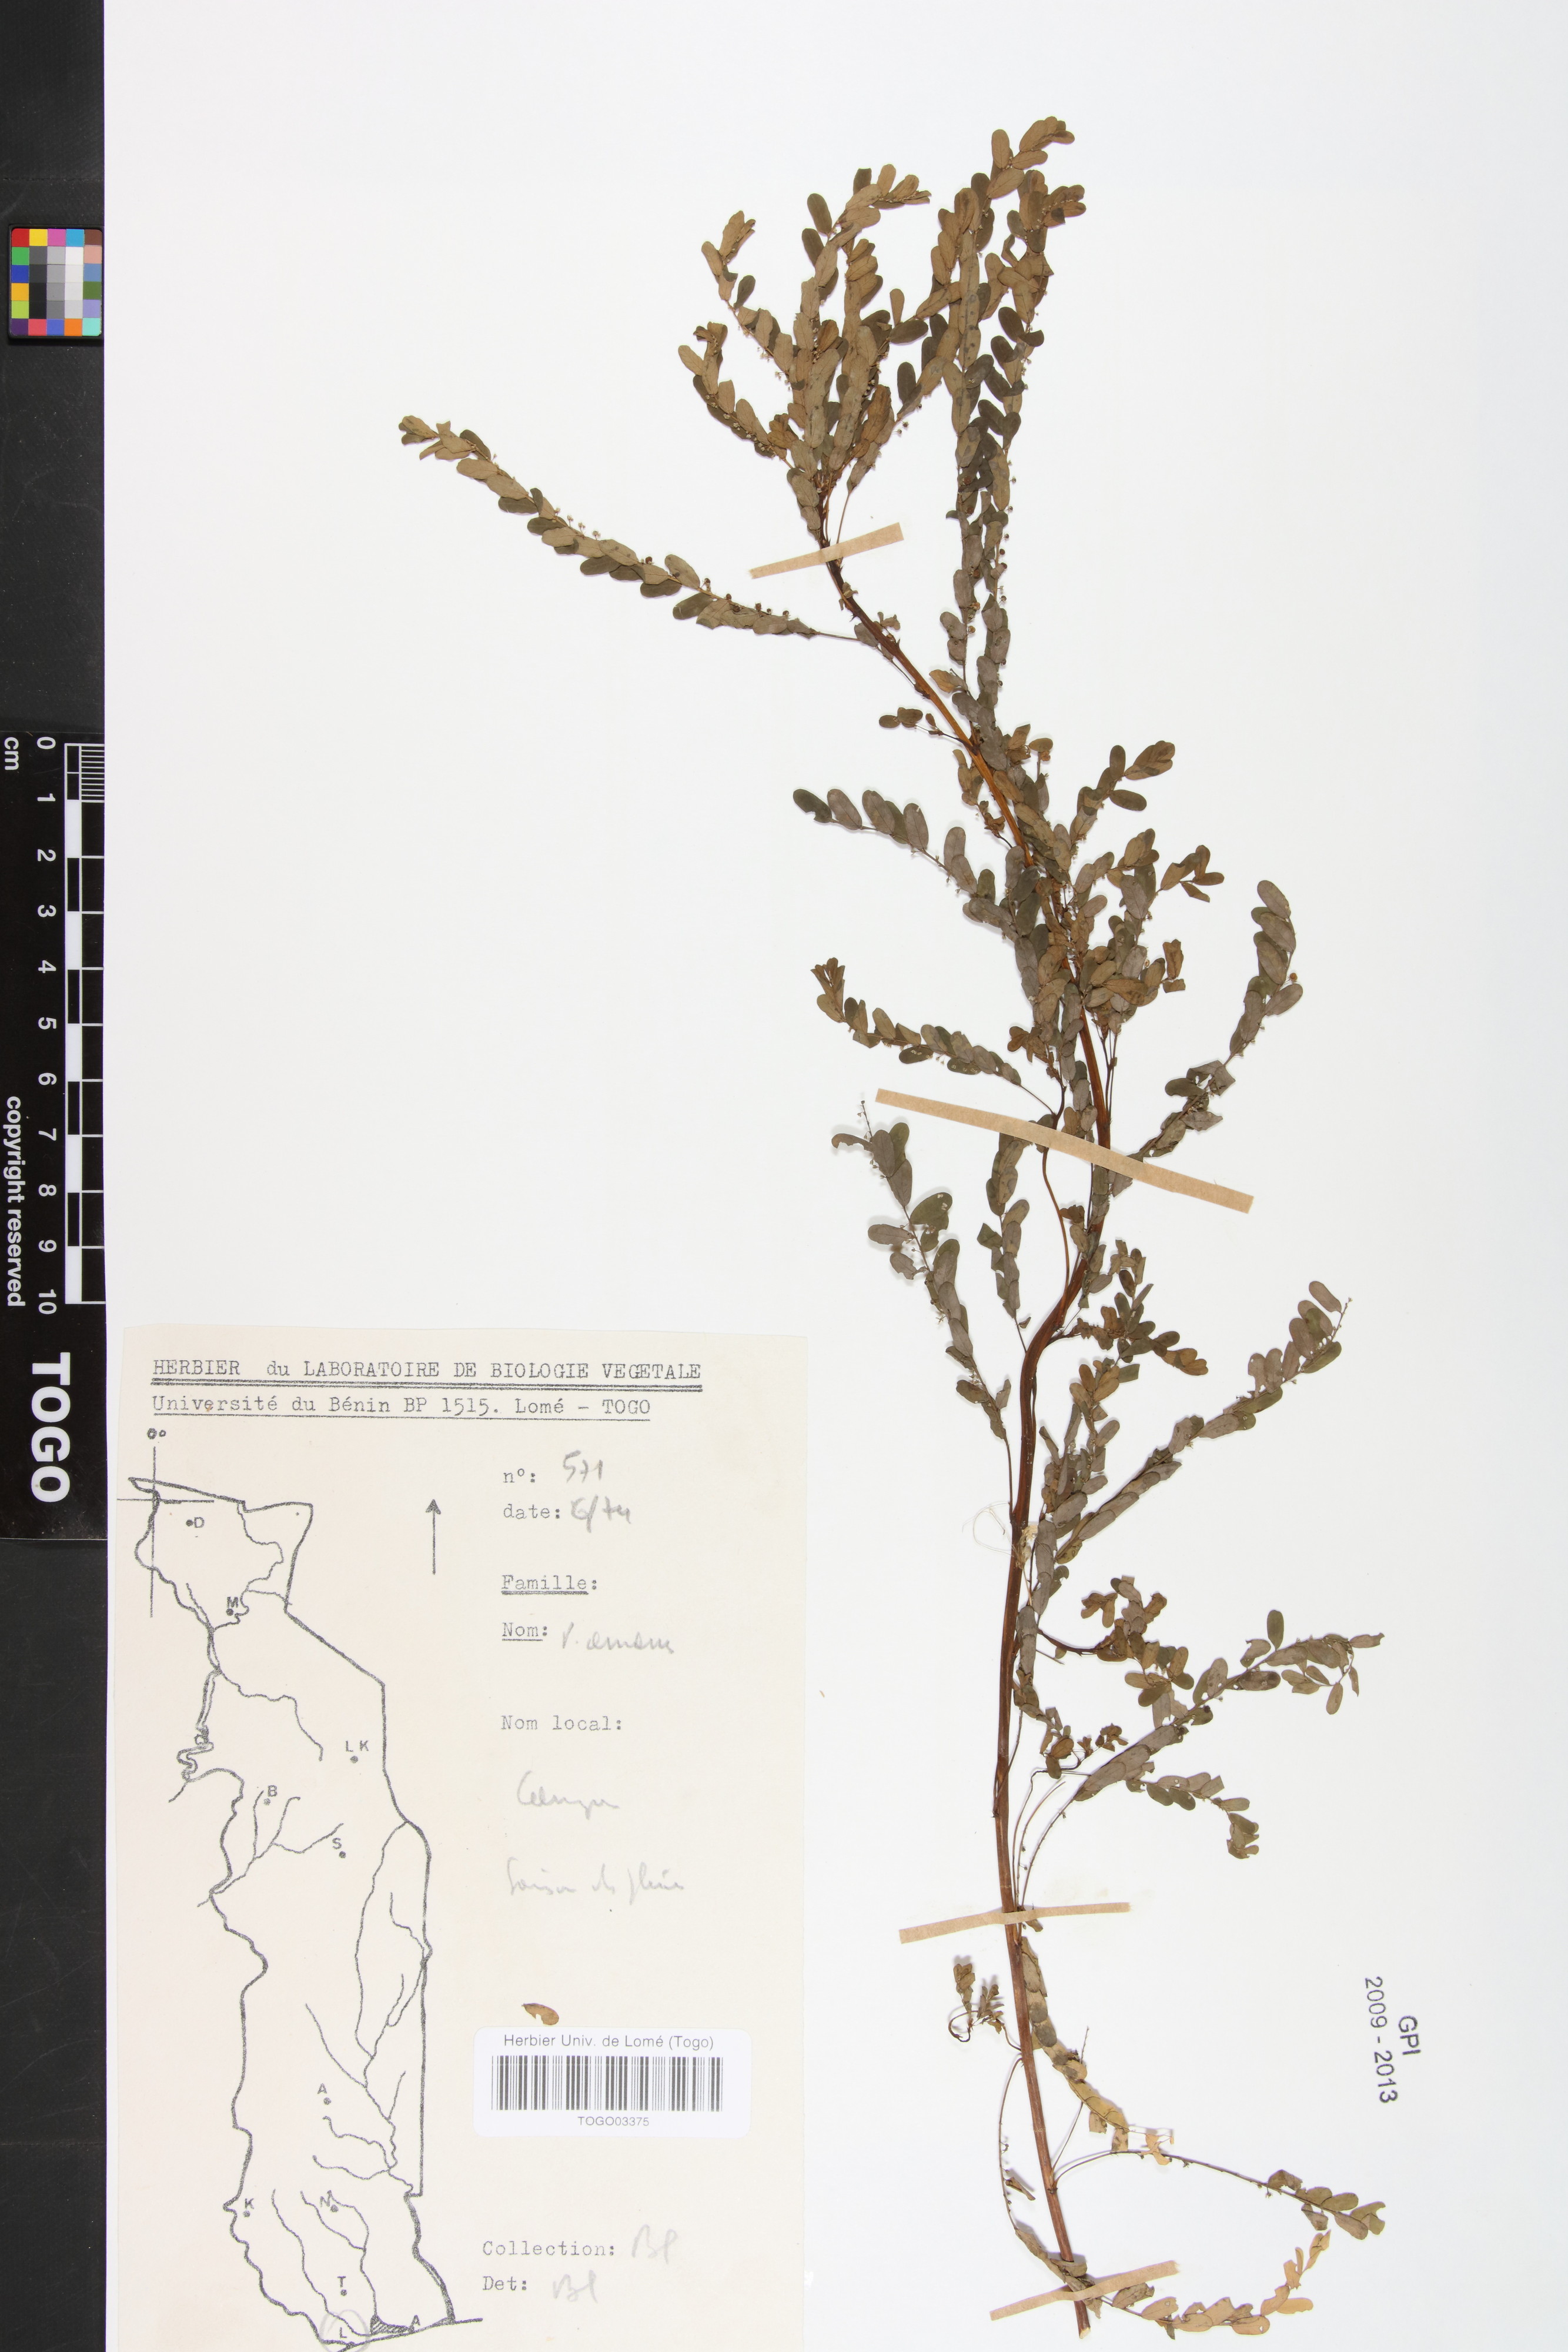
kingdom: Plantae
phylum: Tracheophyta
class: Magnoliopsida
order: Malpighiales
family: Phyllanthaceae
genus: Phyllanthus
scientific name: Phyllanthus amarus
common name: Carry me seed
